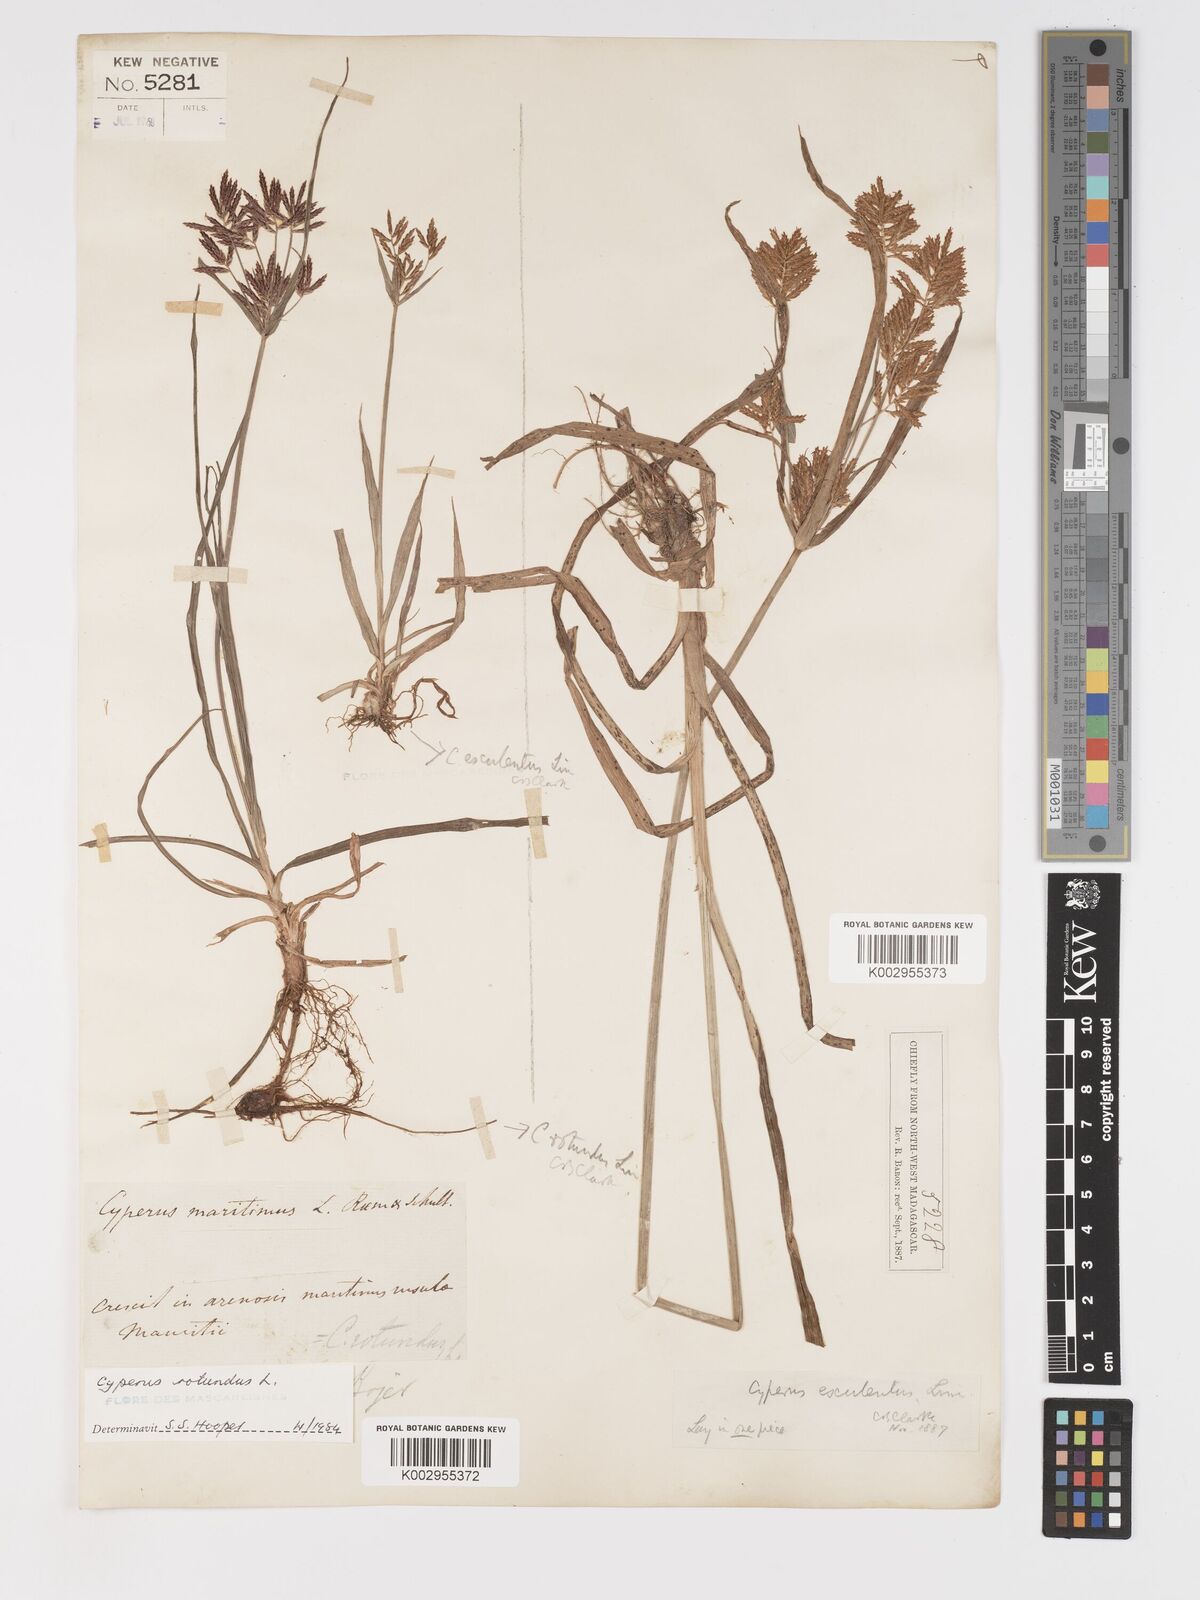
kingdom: Plantae
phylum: Tracheophyta
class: Liliopsida
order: Poales
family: Cyperaceae
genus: Cyperus
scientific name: Cyperus rotundus
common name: Nutgrass
